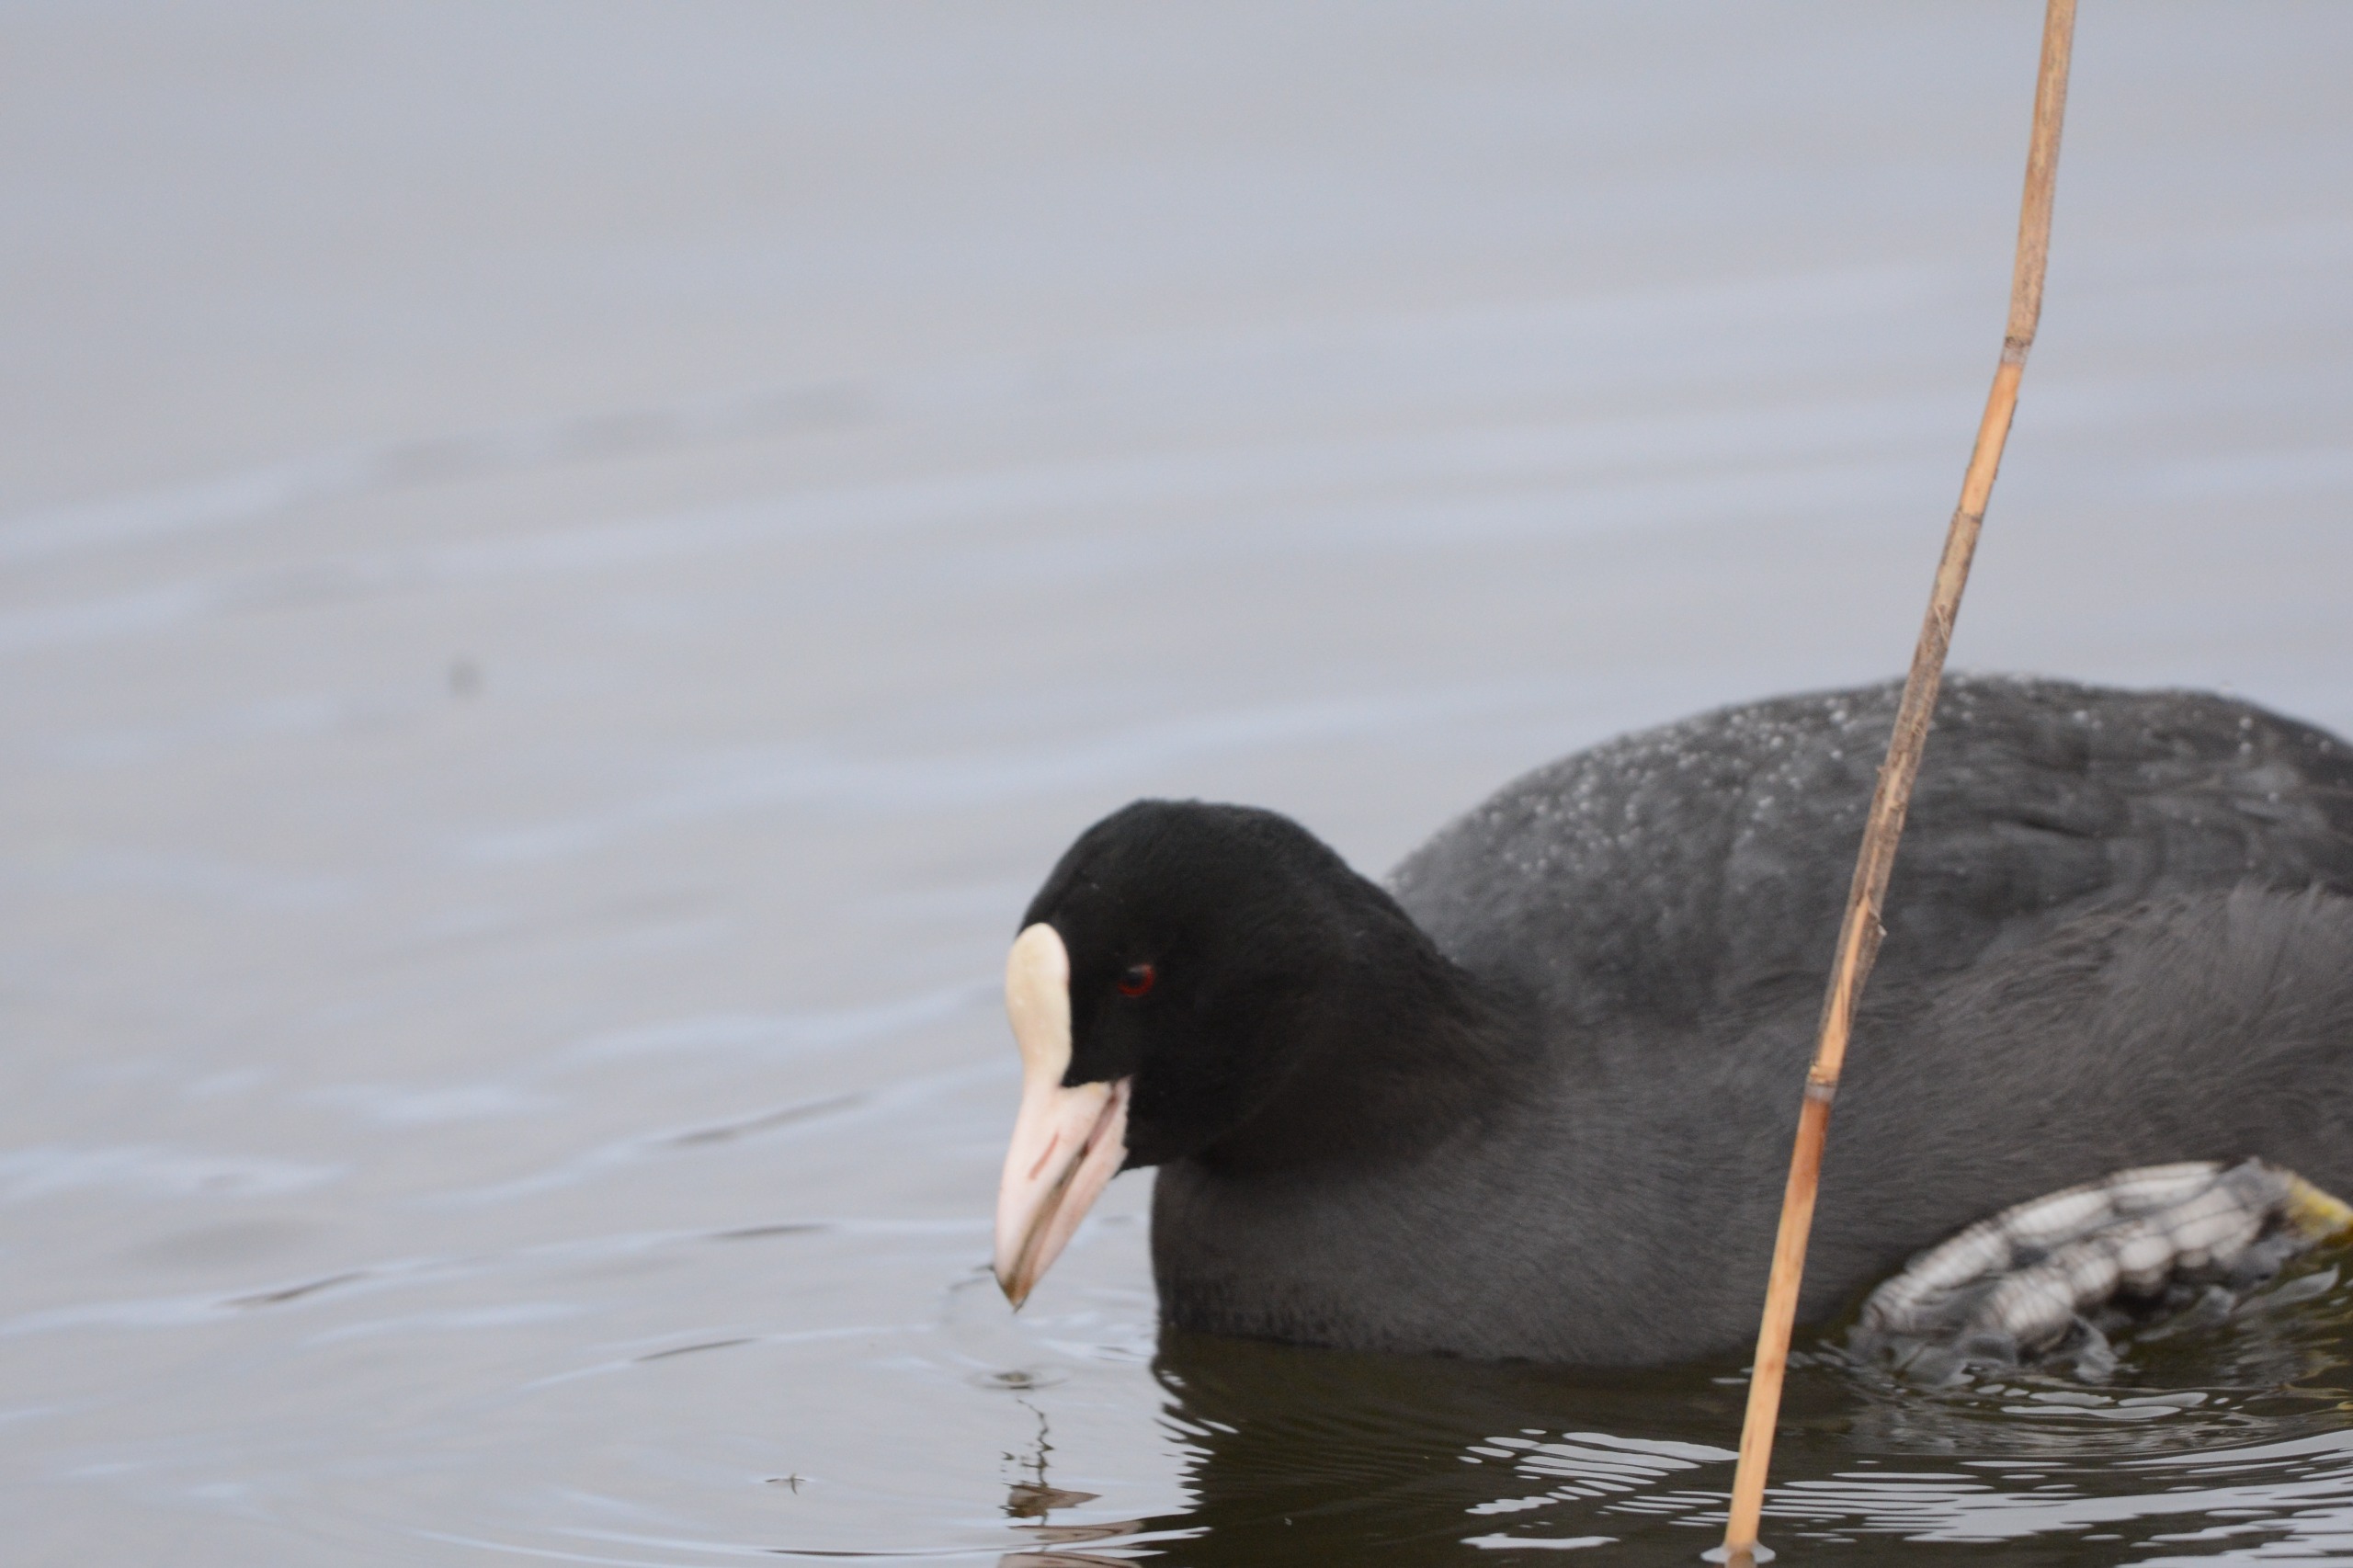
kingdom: Animalia
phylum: Chordata
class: Aves
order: Gruiformes
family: Rallidae
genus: Fulica
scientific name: Fulica atra
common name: Blishøne
